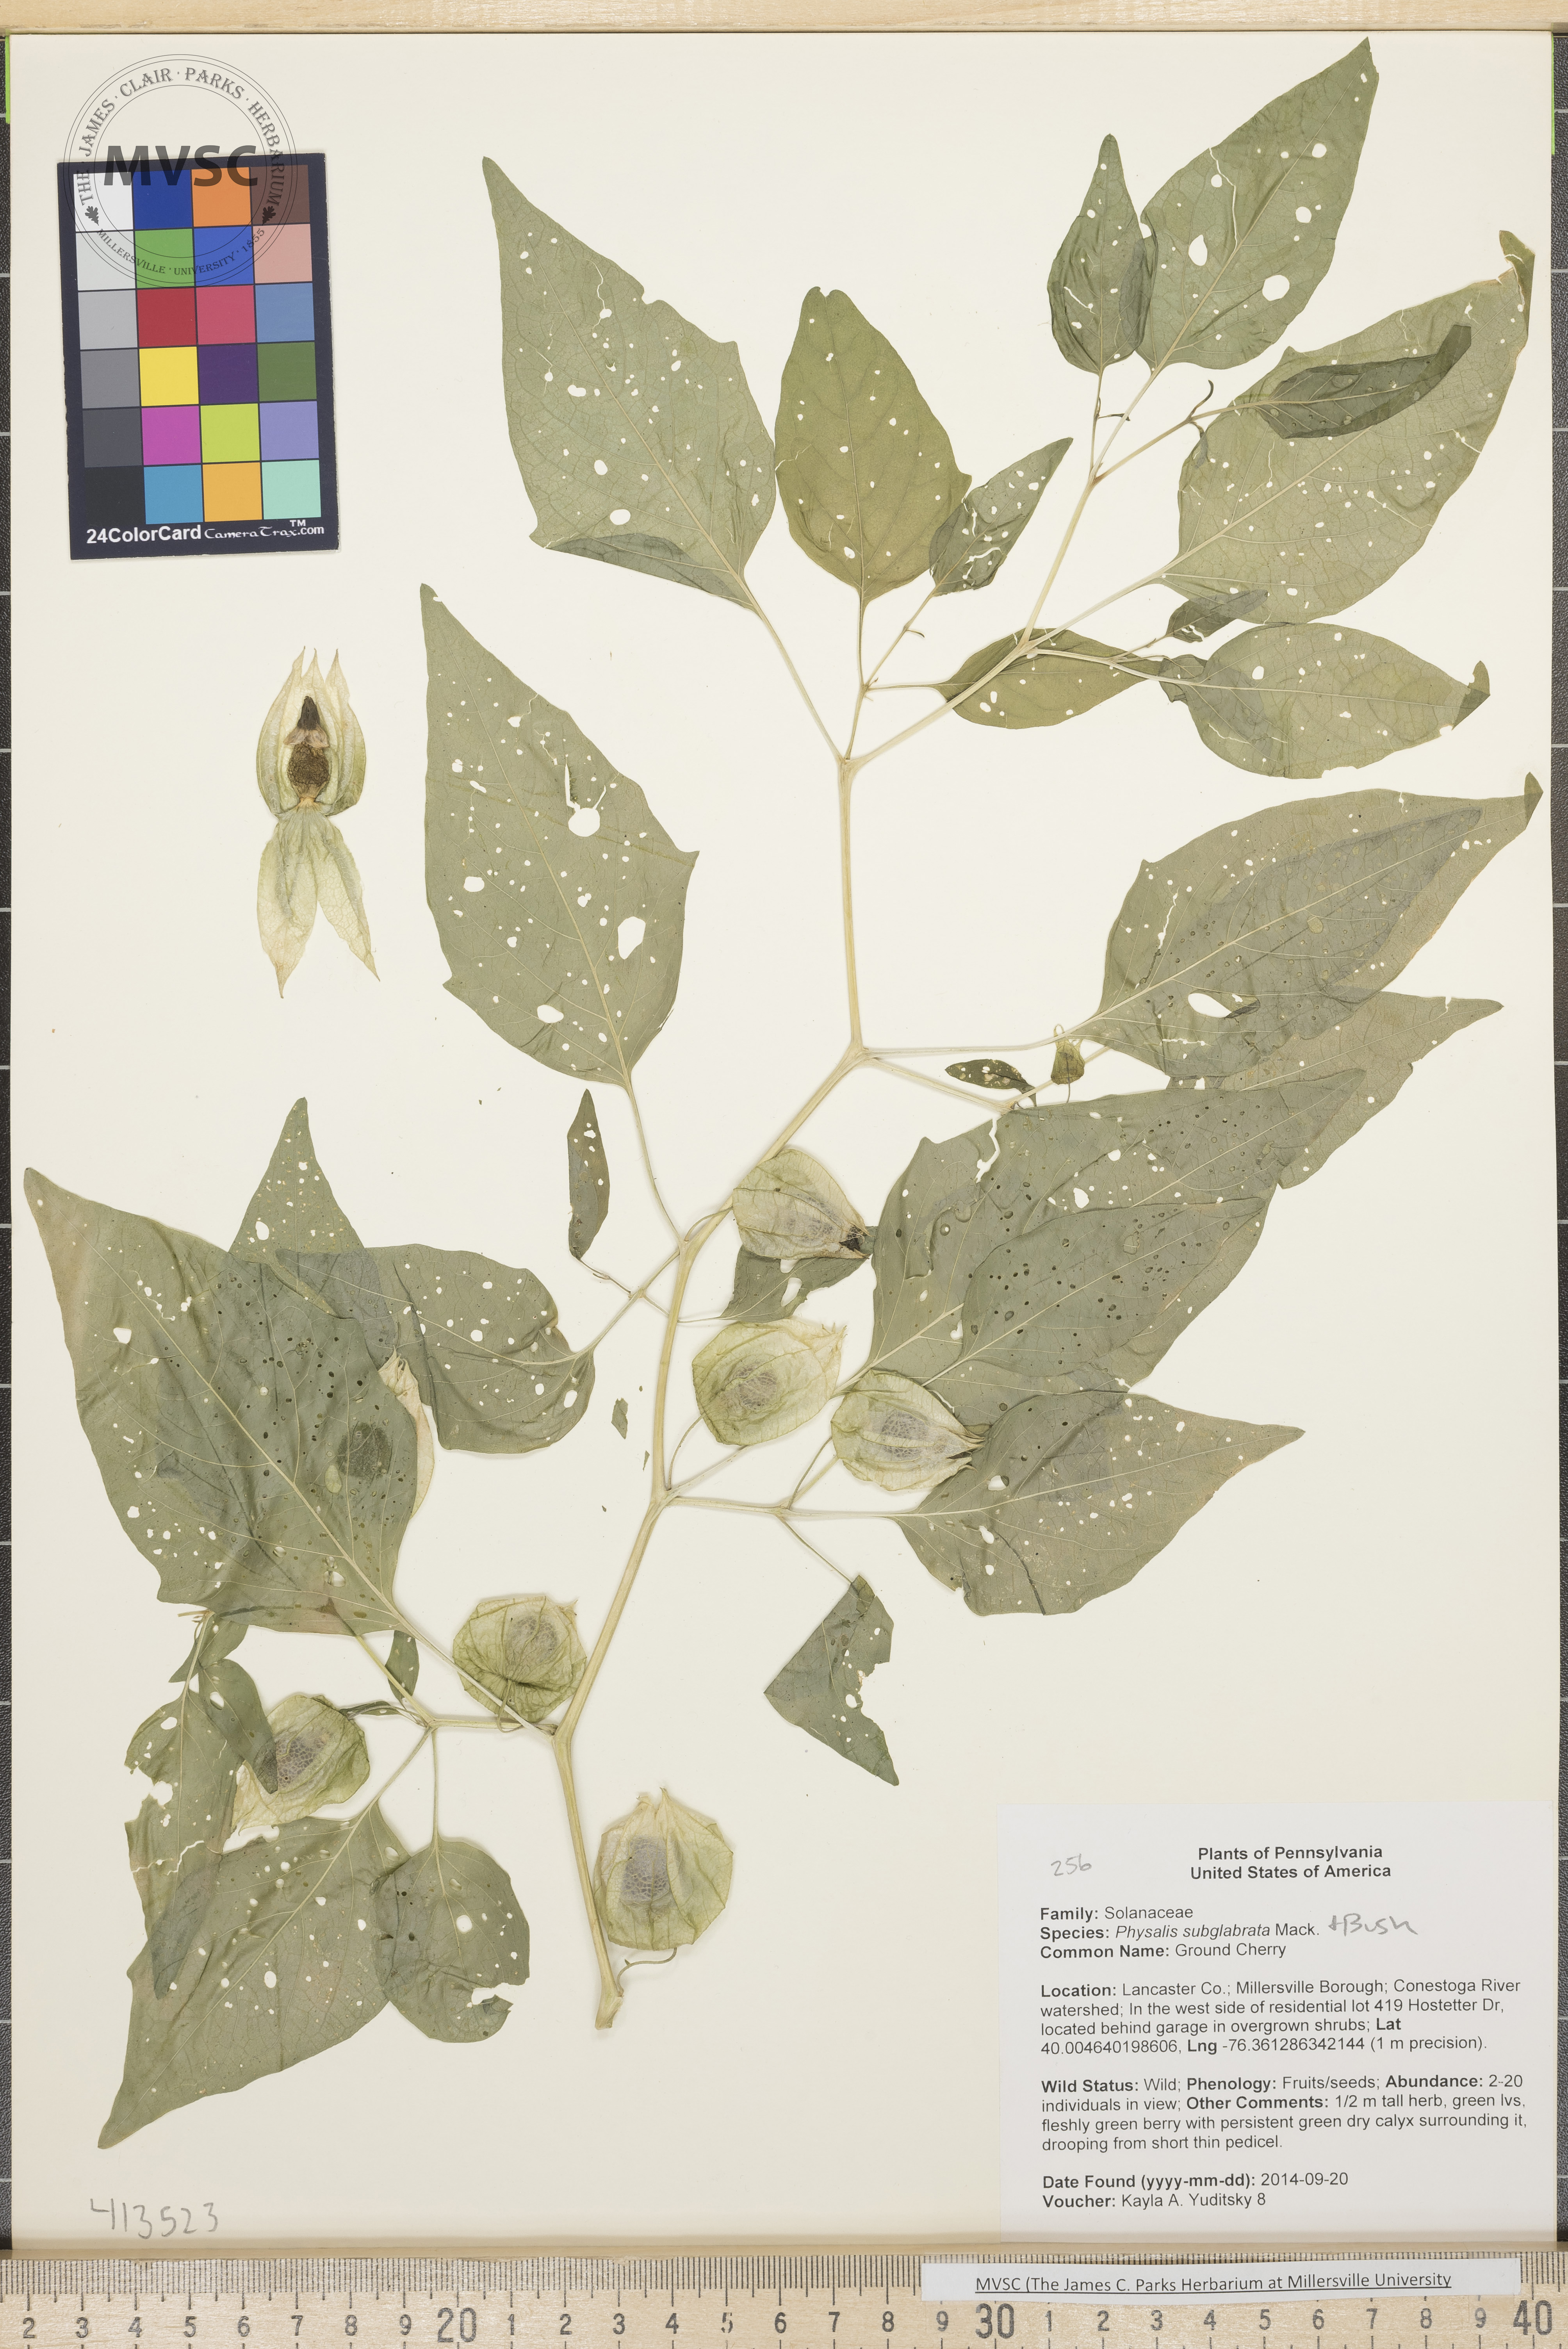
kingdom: Plantae
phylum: Tracheophyta
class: Magnoliopsida
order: Solanales
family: Solanaceae
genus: Physalis
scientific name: Physalis longifolia
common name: Ground Cherry
